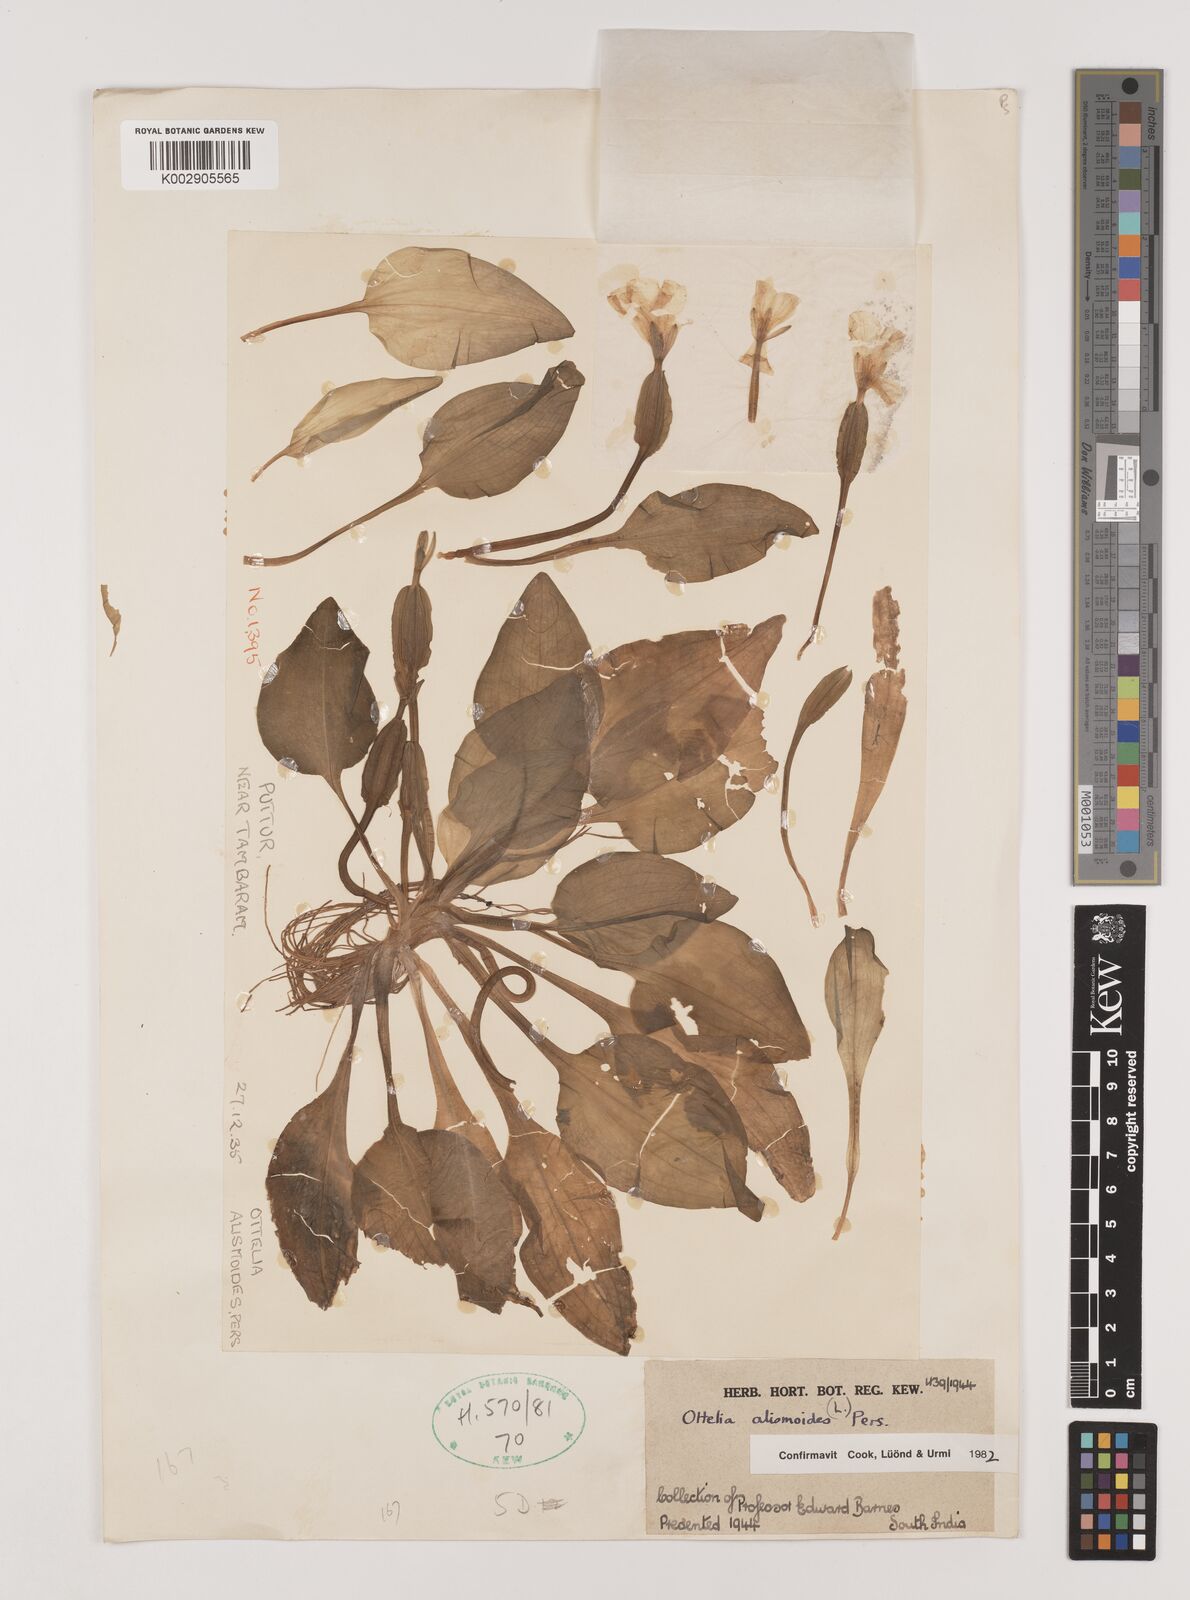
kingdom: Plantae
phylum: Tracheophyta
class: Liliopsida
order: Alismatales
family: Hydrocharitaceae
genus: Ottelia
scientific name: Ottelia alismoides
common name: Duck-lettuce
